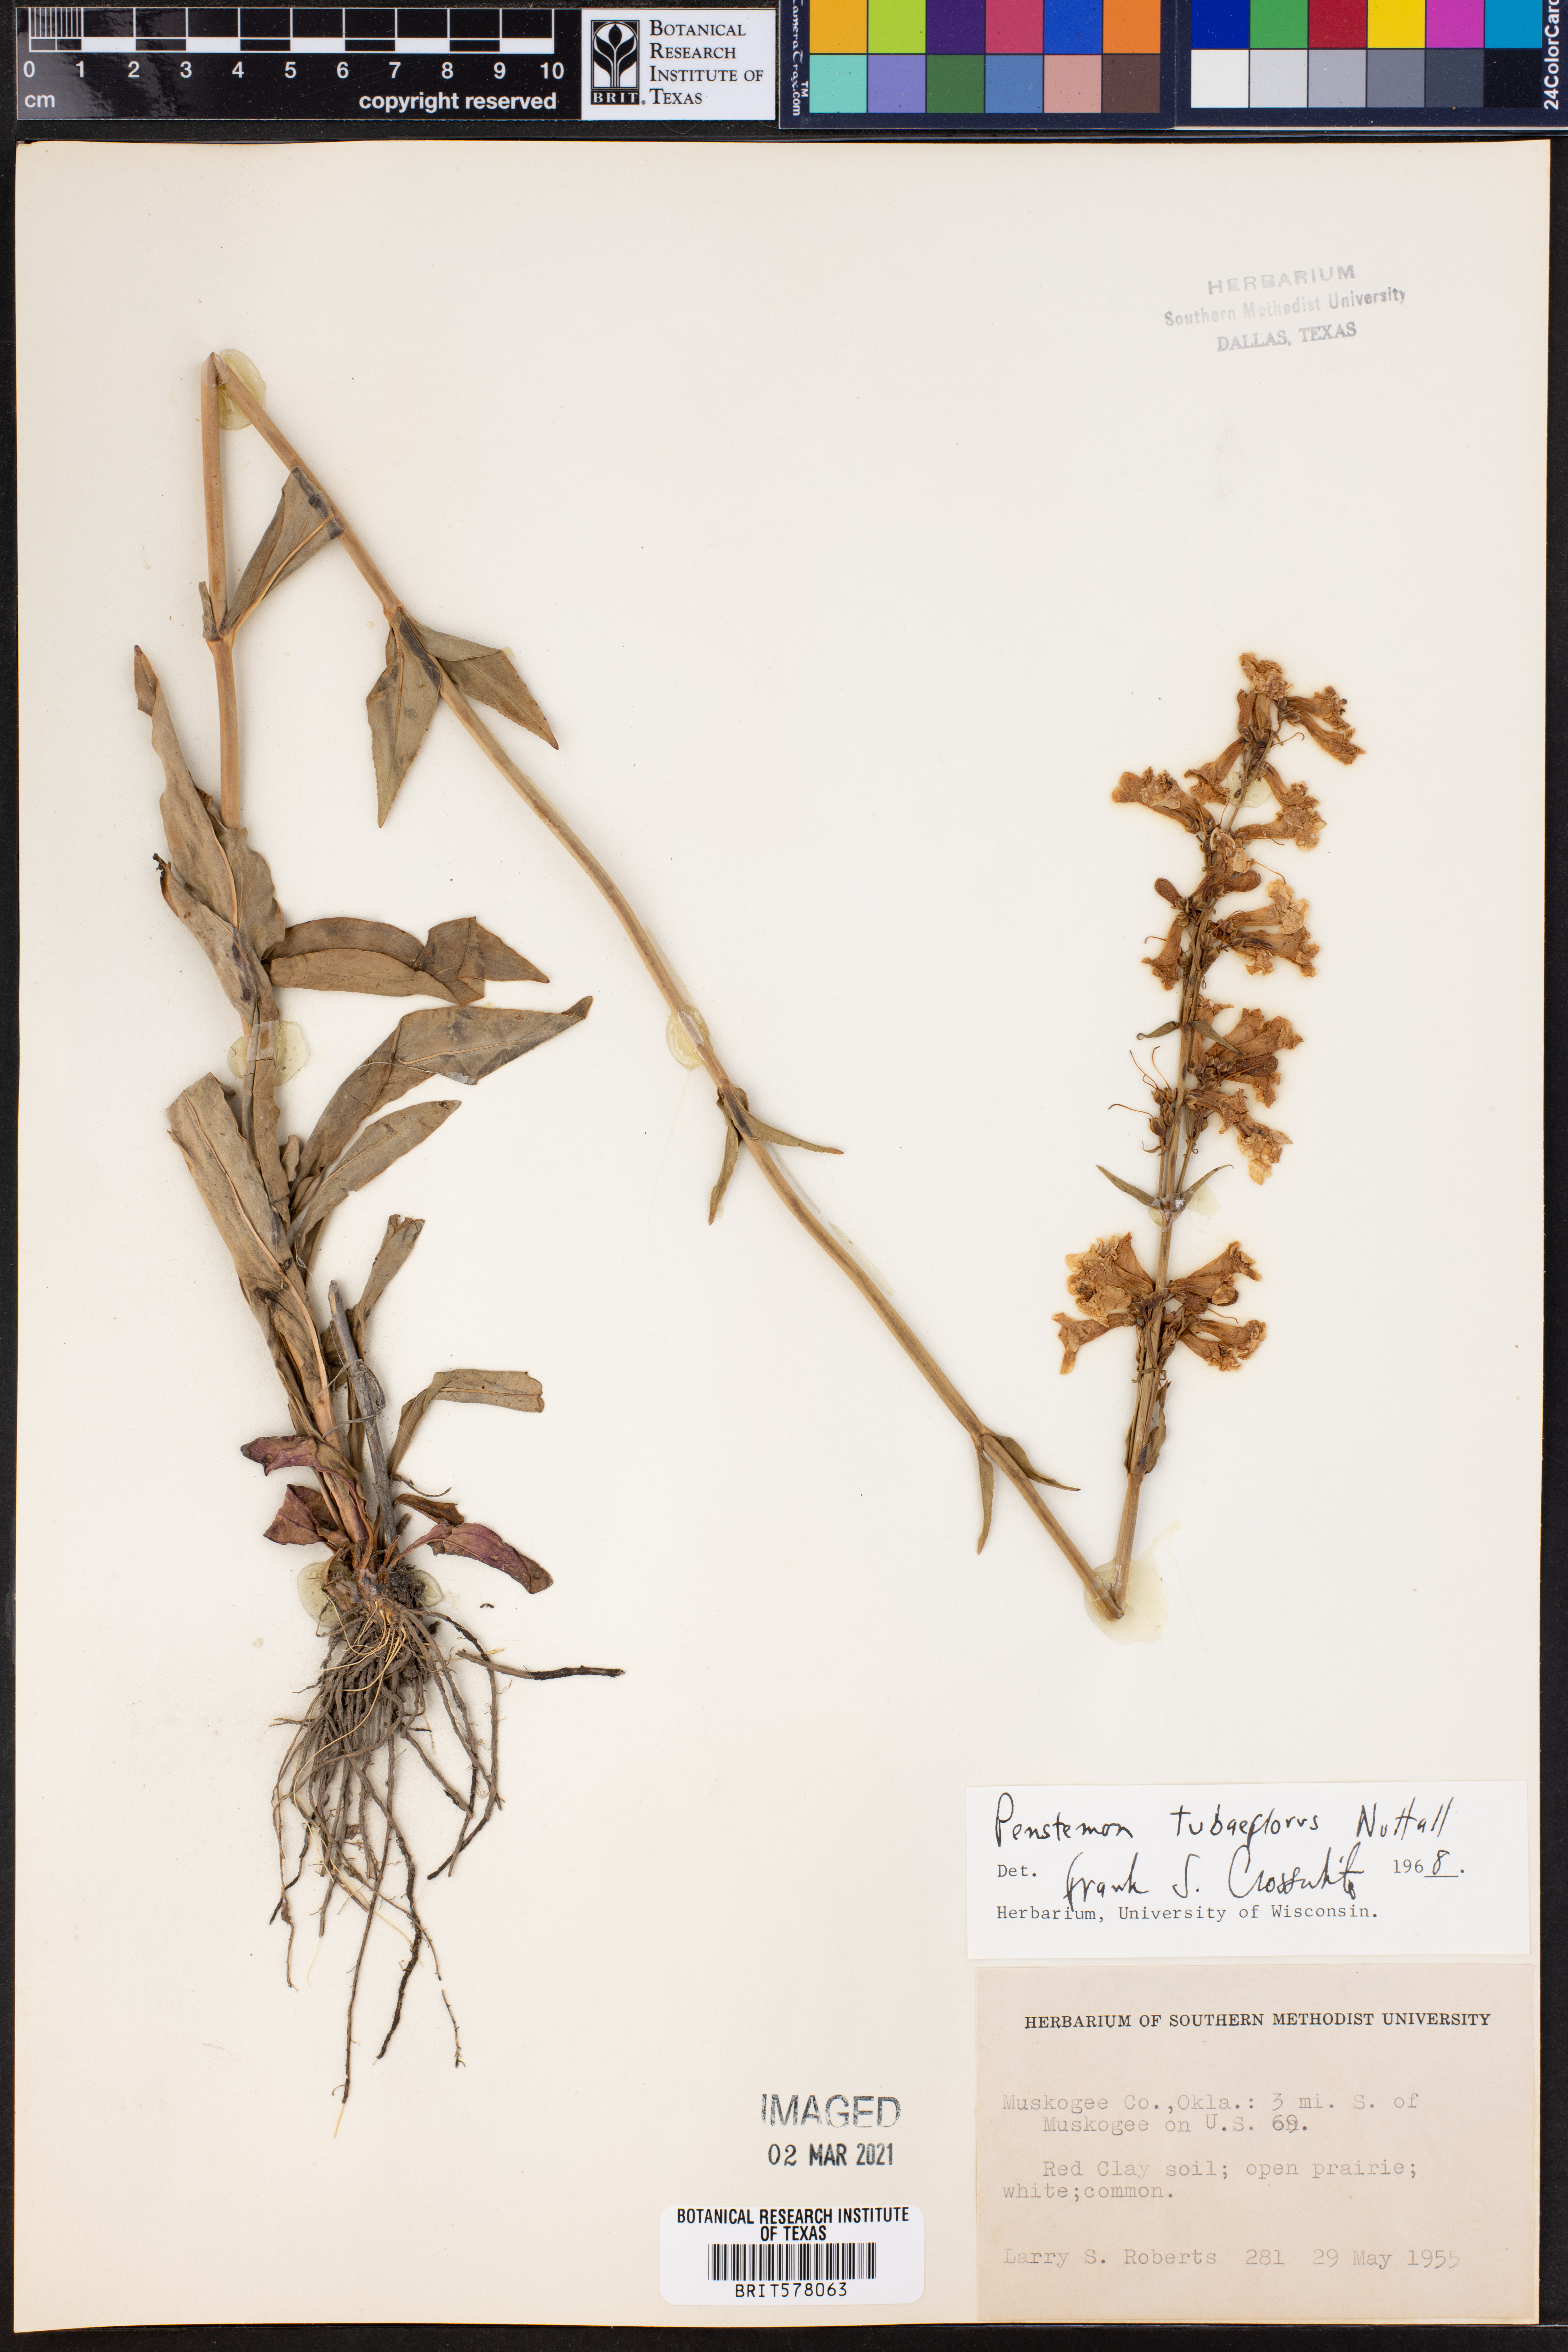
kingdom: Plantae
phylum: Tracheophyta
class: Magnoliopsida
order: Lamiales
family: Plantaginaceae
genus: Penstemon
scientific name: Penstemon tubaeflorus
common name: White wand beardtongue
